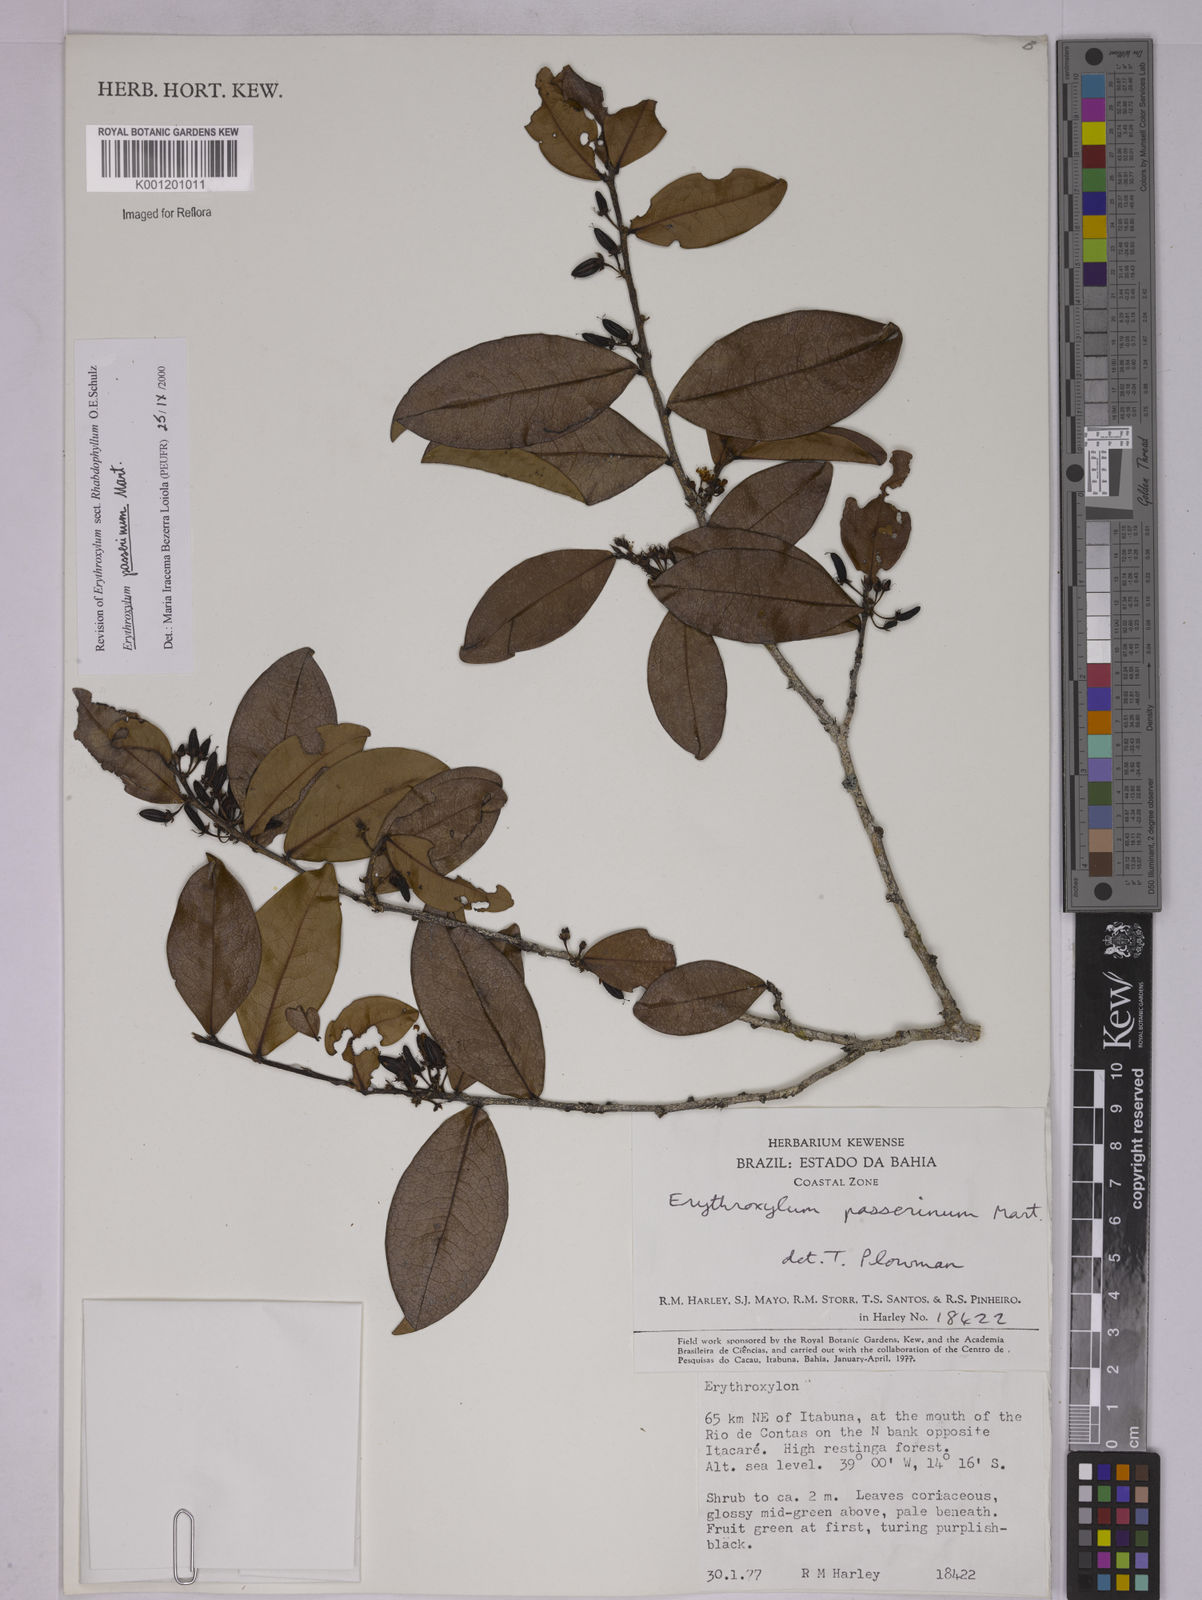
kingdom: Plantae
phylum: Tracheophyta
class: Magnoliopsida
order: Malpighiales
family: Erythroxylaceae
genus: Erythroxylum
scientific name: Erythroxylum passerinum
